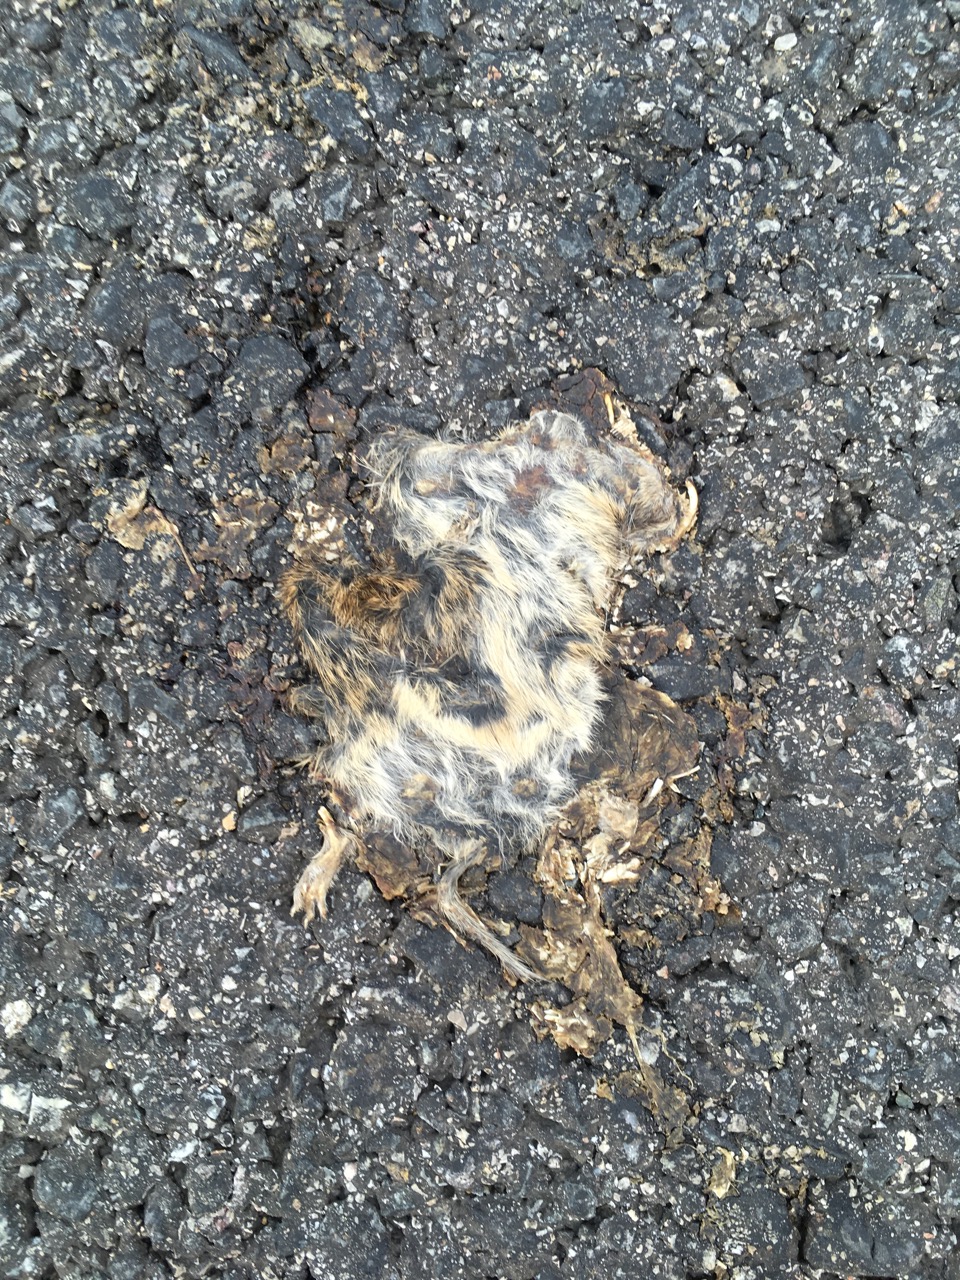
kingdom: Animalia
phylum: Chordata
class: Mammalia
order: Rodentia
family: Cricetidae
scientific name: Cricetidae
